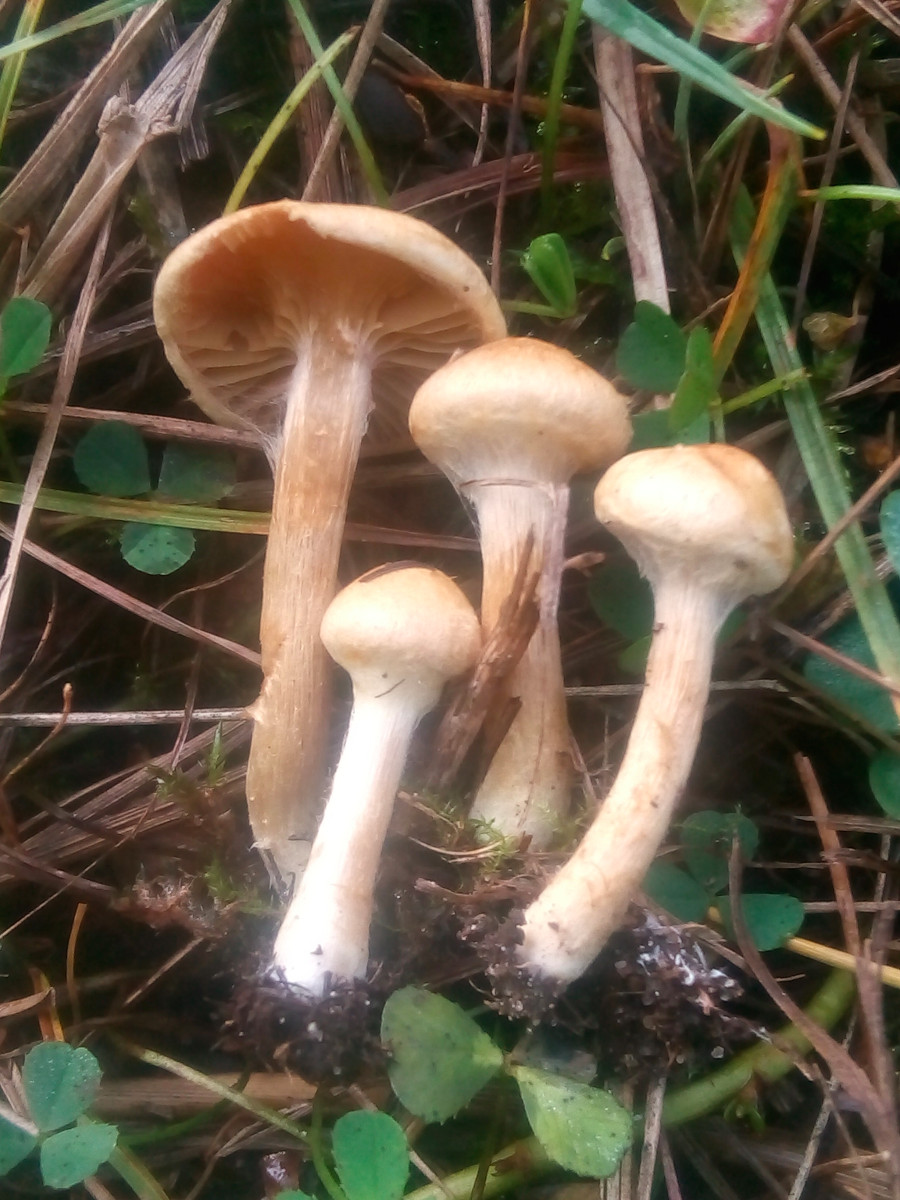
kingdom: Fungi
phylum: Basidiomycota
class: Agaricomycetes
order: Agaricales
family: Strophariaceae
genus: Pholiota
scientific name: Pholiota conissans
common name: pile-skælhat
